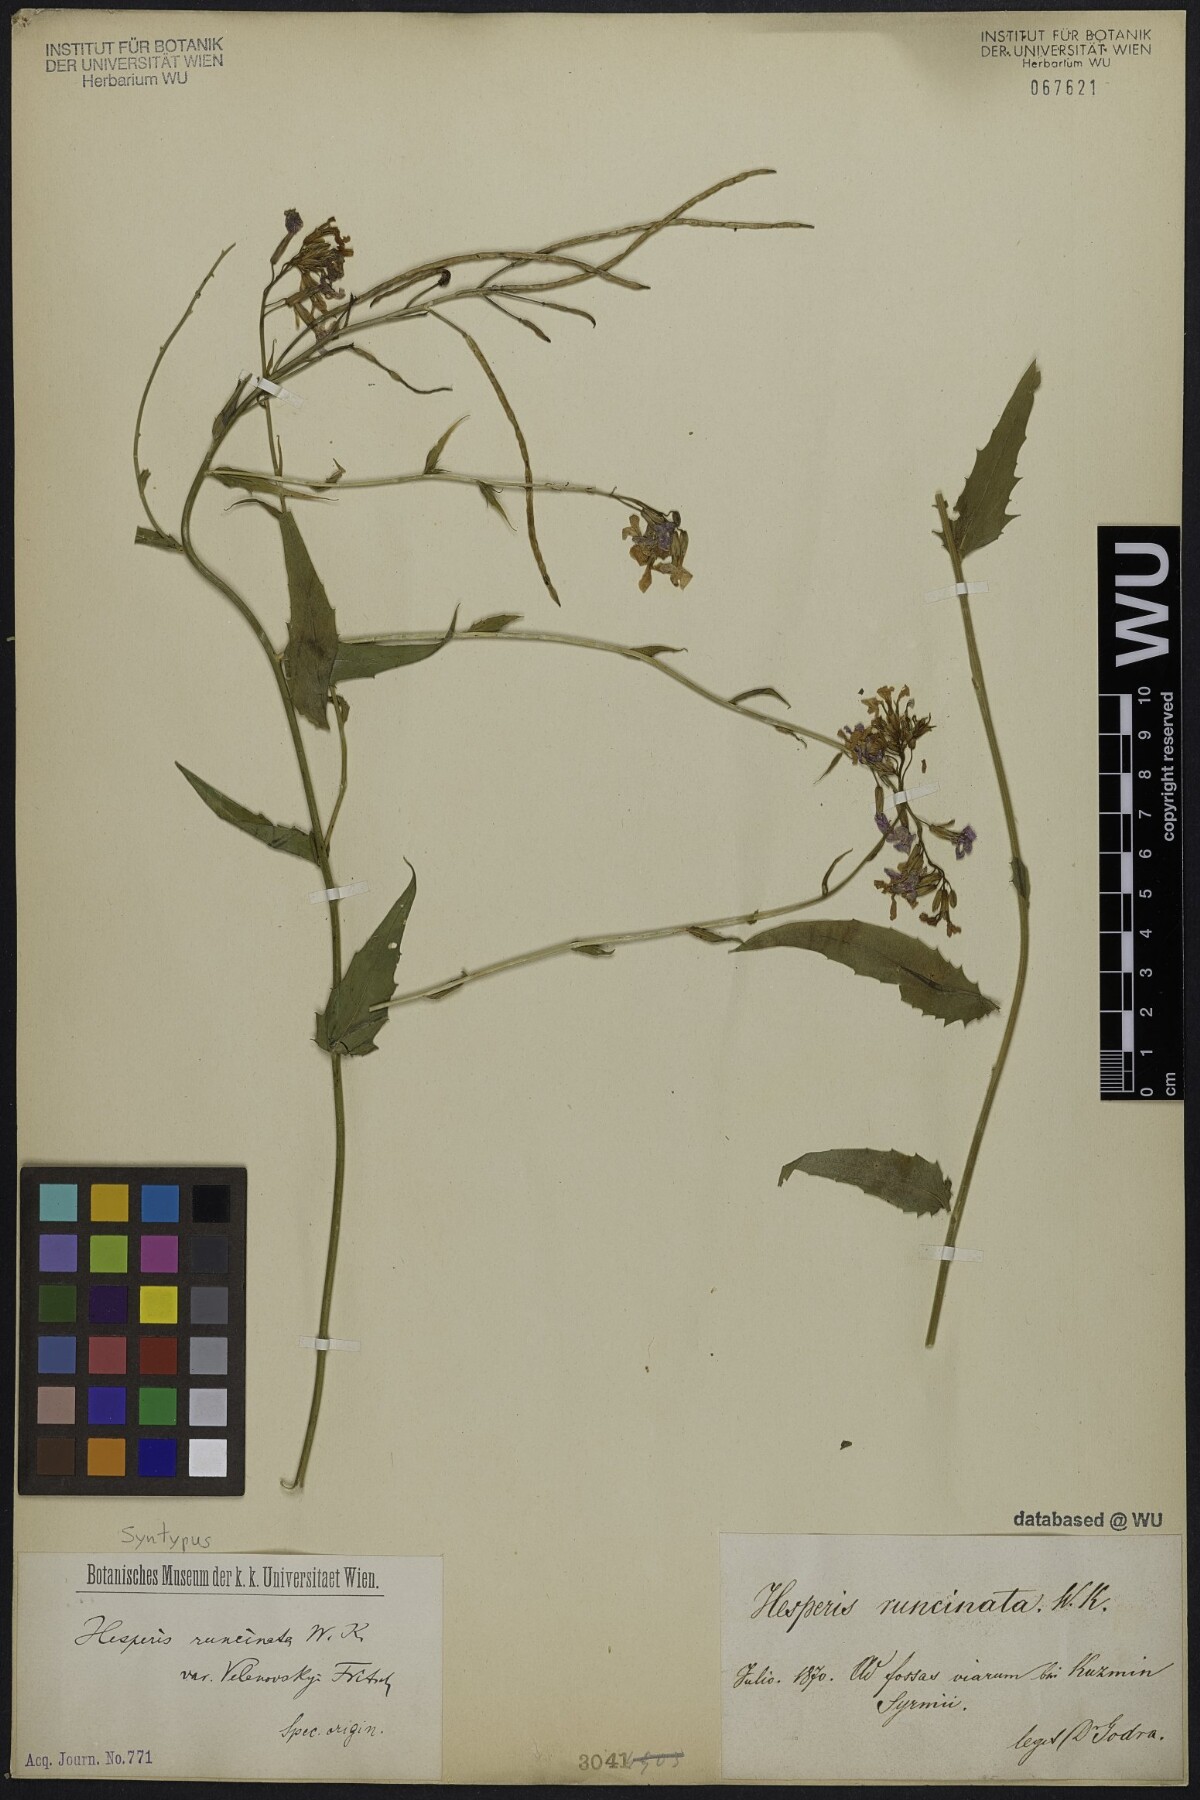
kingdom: Plantae
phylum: Tracheophyta
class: Magnoliopsida
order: Brassicales
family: Brassicaceae
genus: Hesperis
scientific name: Hesperis sylvestris
